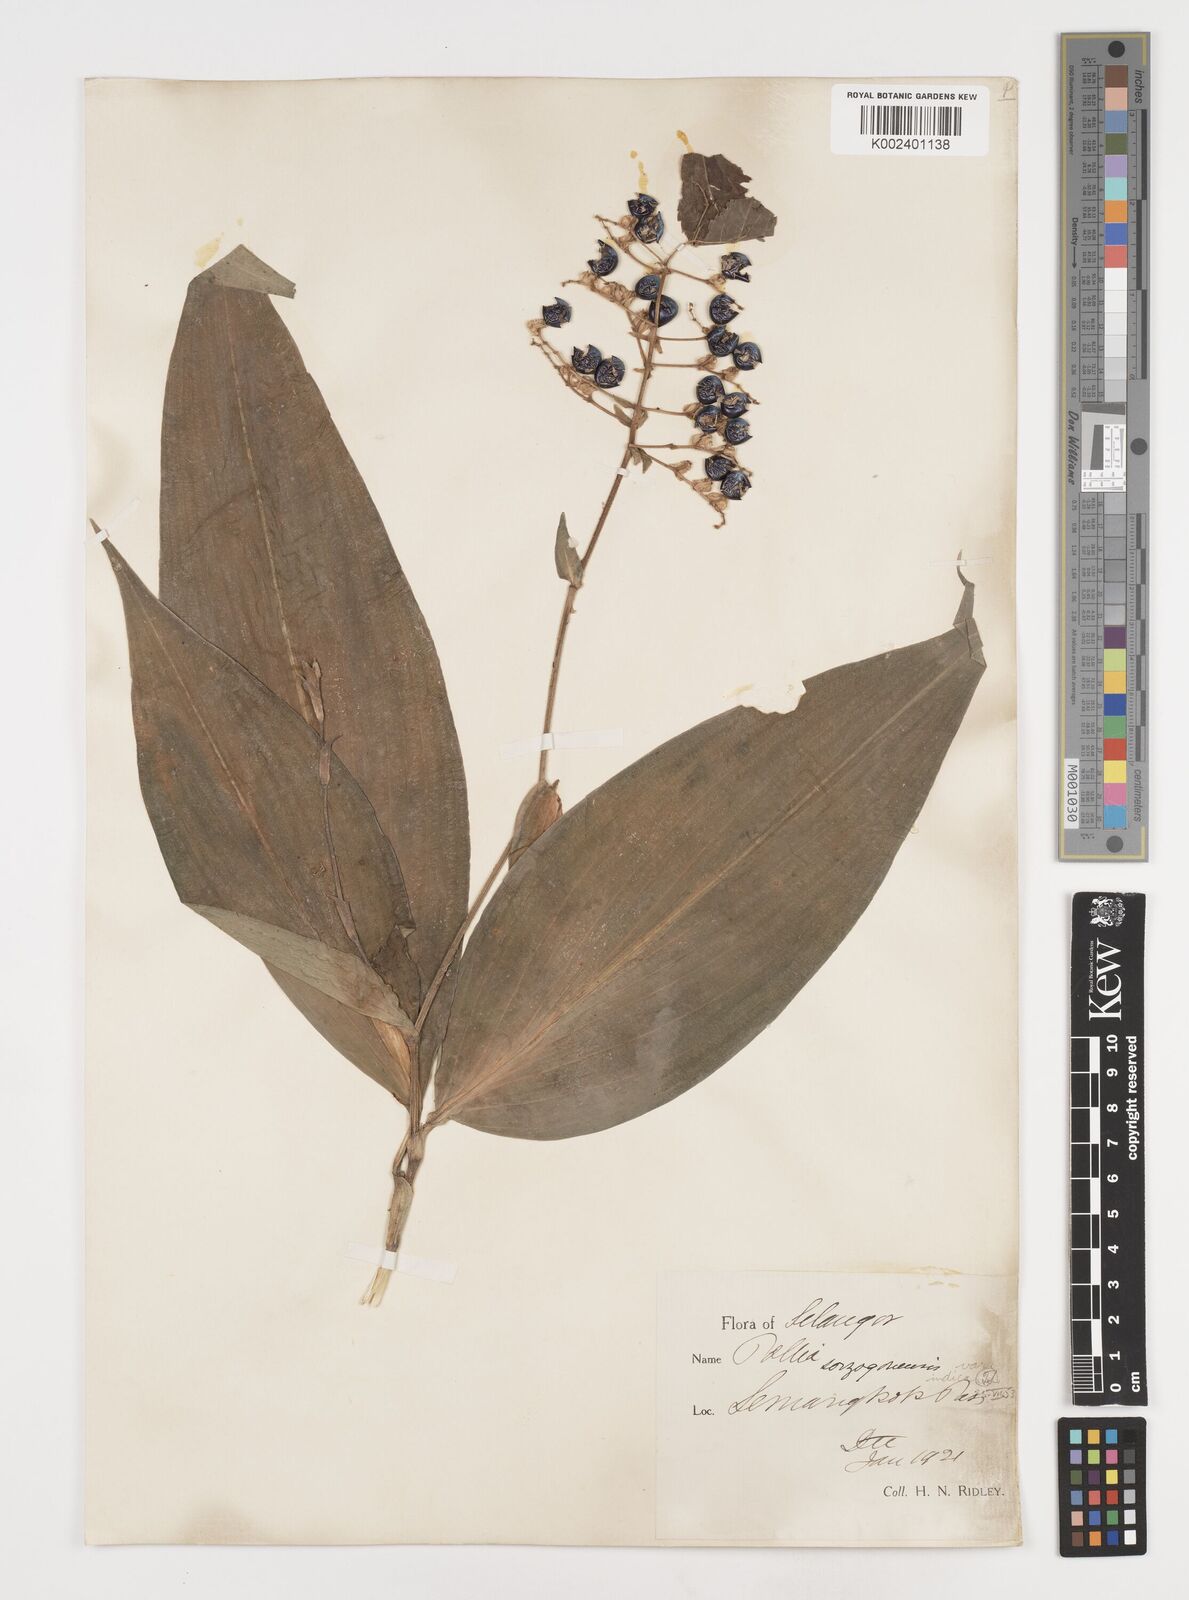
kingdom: Plantae
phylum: Tracheophyta
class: Liliopsida
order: Commelinales
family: Commelinaceae
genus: Pollia
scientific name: Pollia secundiflora
